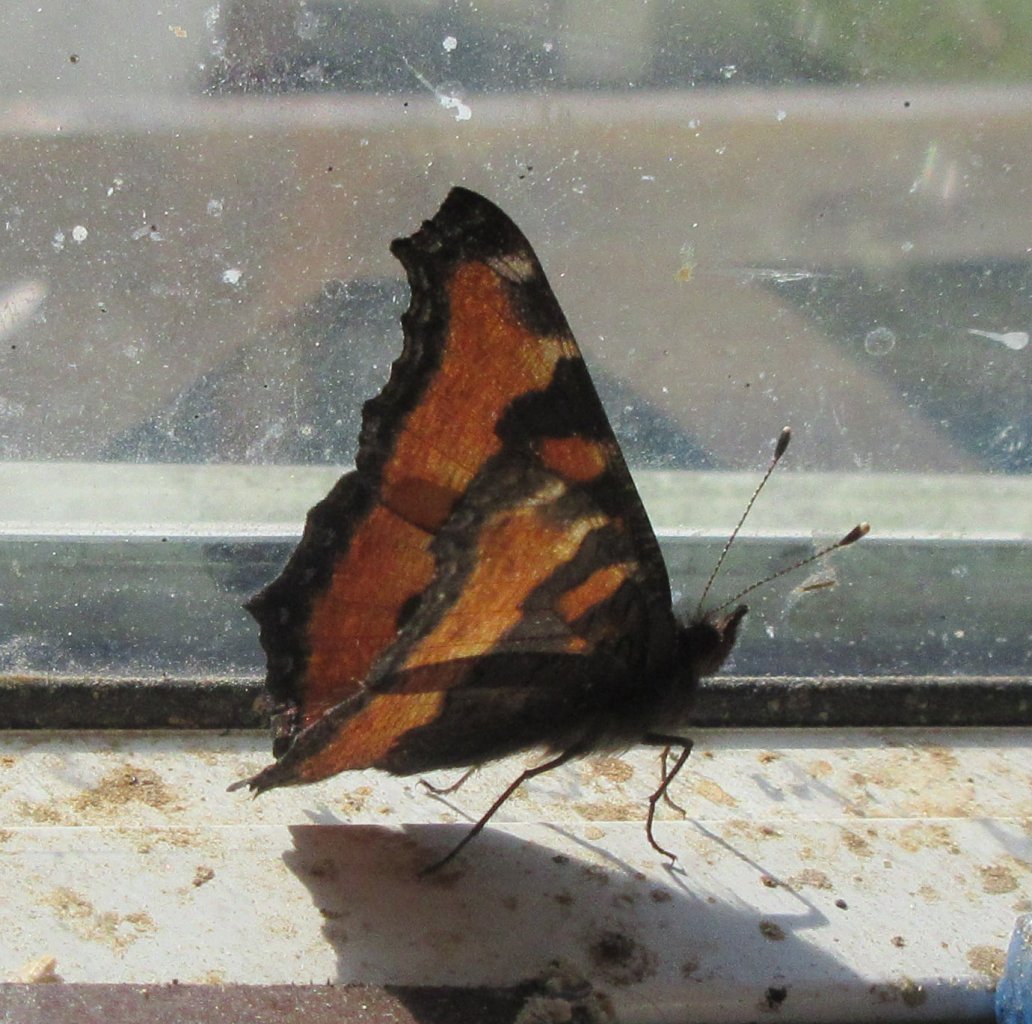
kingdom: Animalia
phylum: Arthropoda
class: Insecta
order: Lepidoptera
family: Nymphalidae
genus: Aglais
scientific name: Aglais milberti
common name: Milbert's Tortoiseshell
